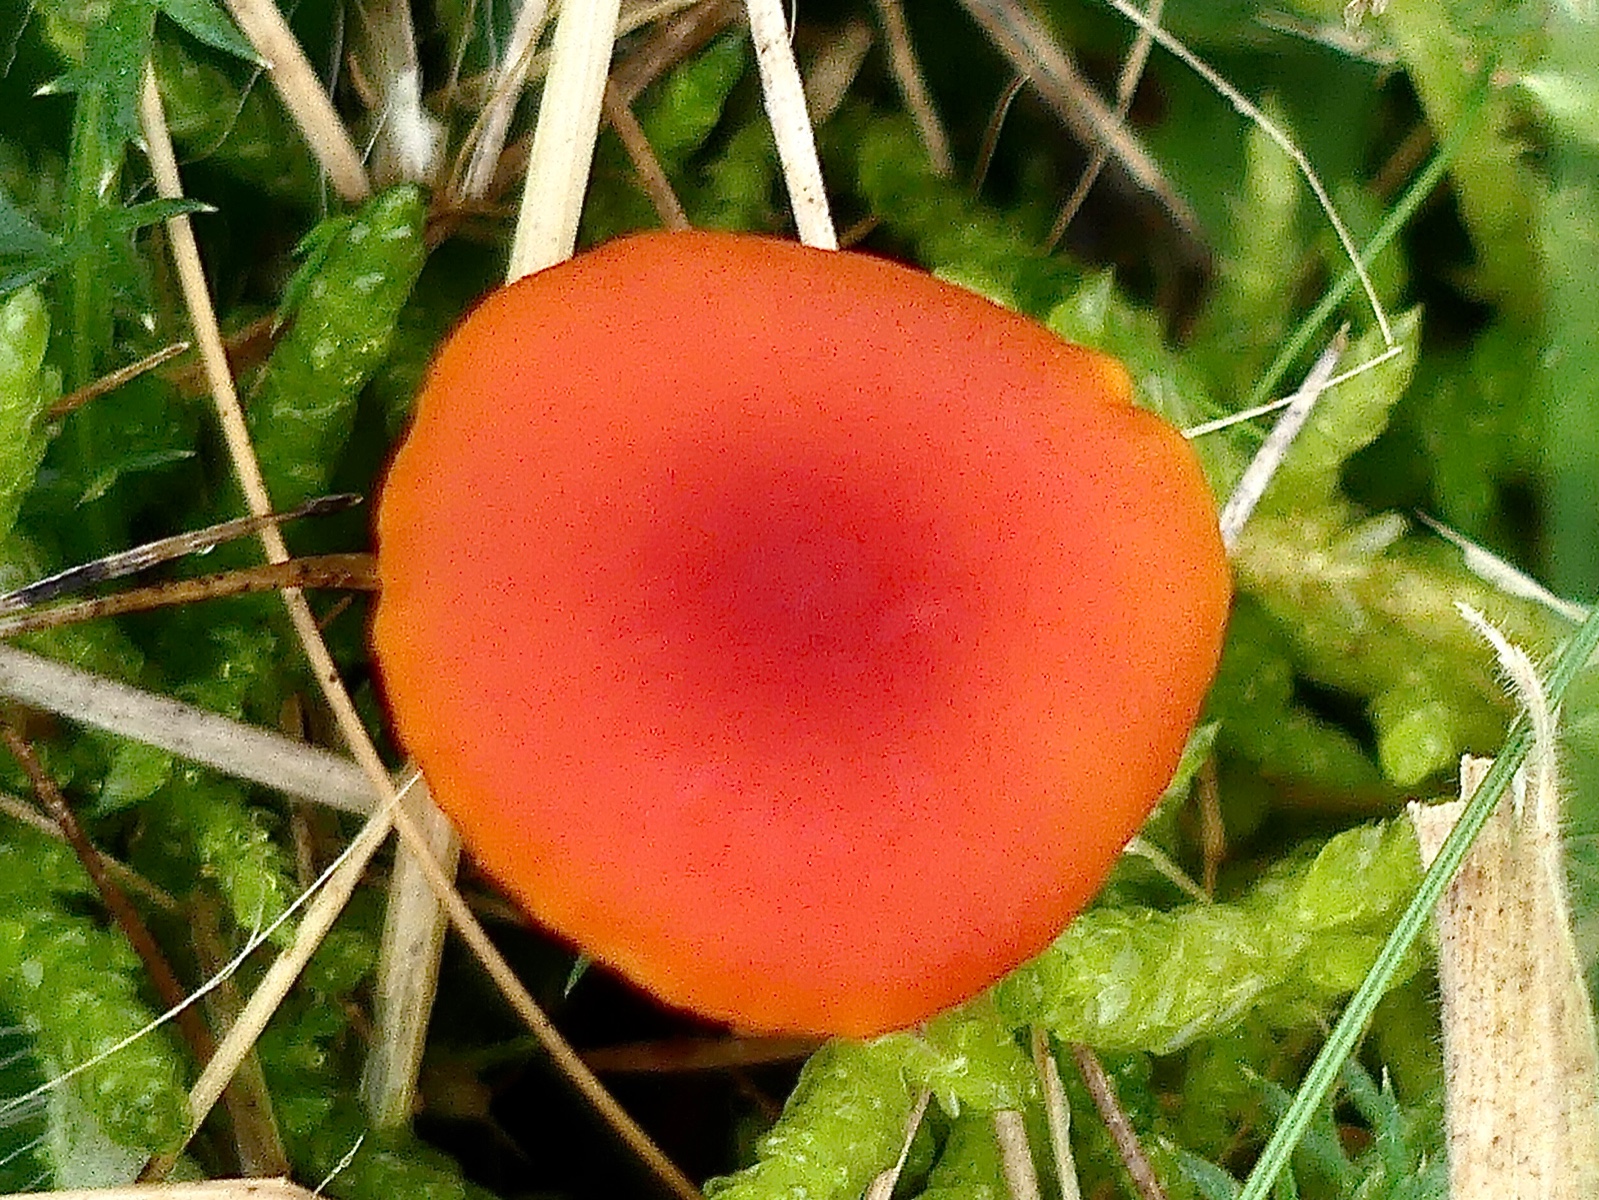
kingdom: Fungi
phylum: Basidiomycota
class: Agaricomycetes
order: Agaricales
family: Hygrophoraceae
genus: Hygrocybe
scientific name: Hygrocybe miniata
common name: mønje-vokshat
